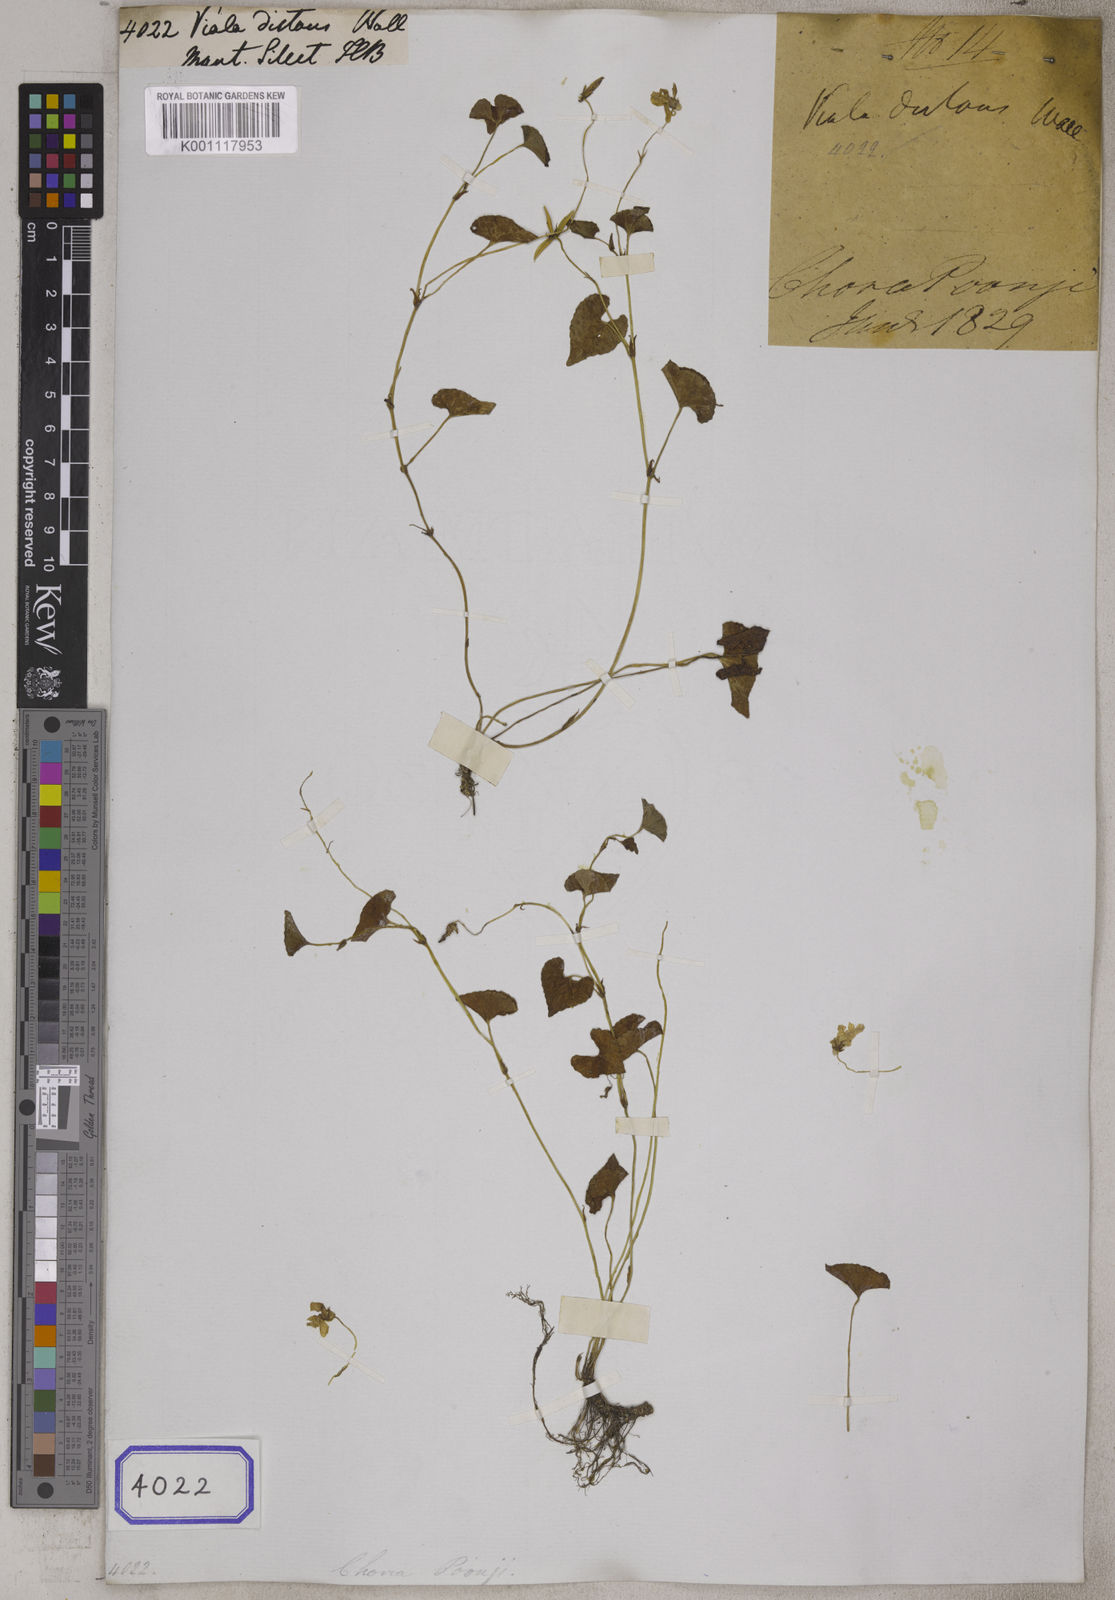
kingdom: Plantae
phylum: Tracheophyta
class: Magnoliopsida
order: Malpighiales
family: Violaceae
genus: Viola
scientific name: Viola hamiltoniana
